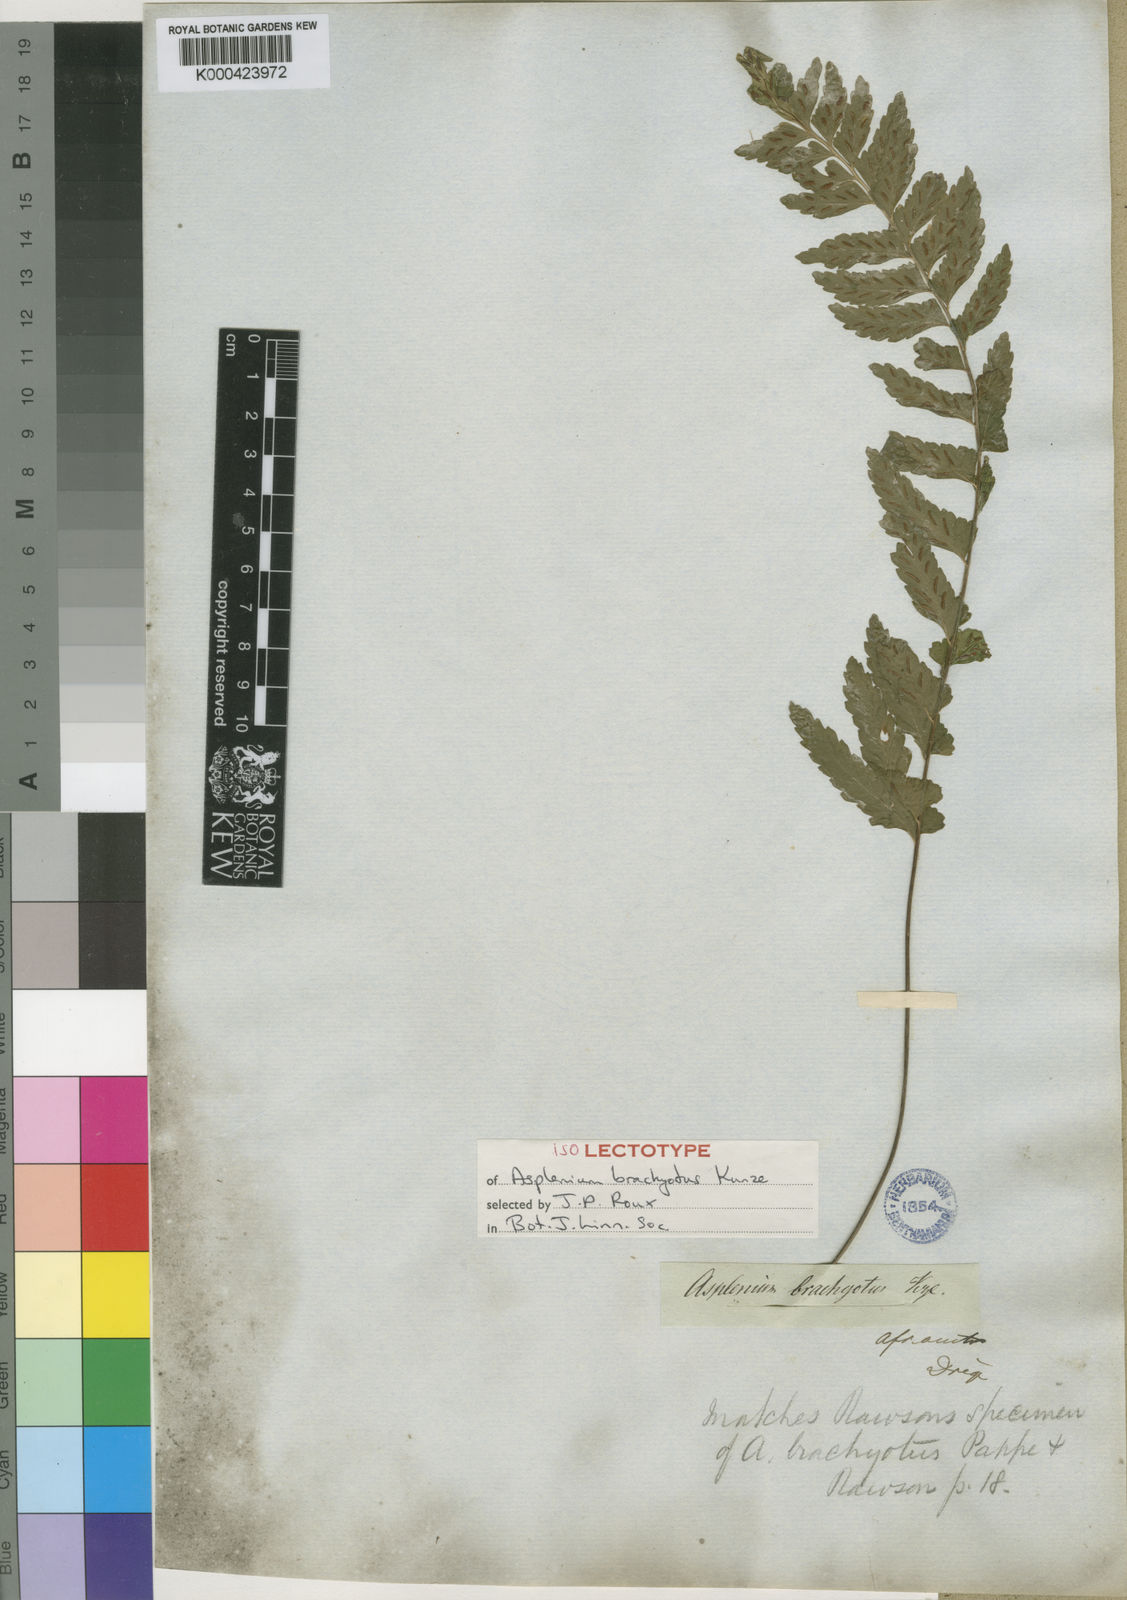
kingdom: Plantae
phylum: Tracheophyta
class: Polypodiopsida
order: Polypodiales
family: Aspleniaceae
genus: Asplenium
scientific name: Asplenium inaequilaterale
